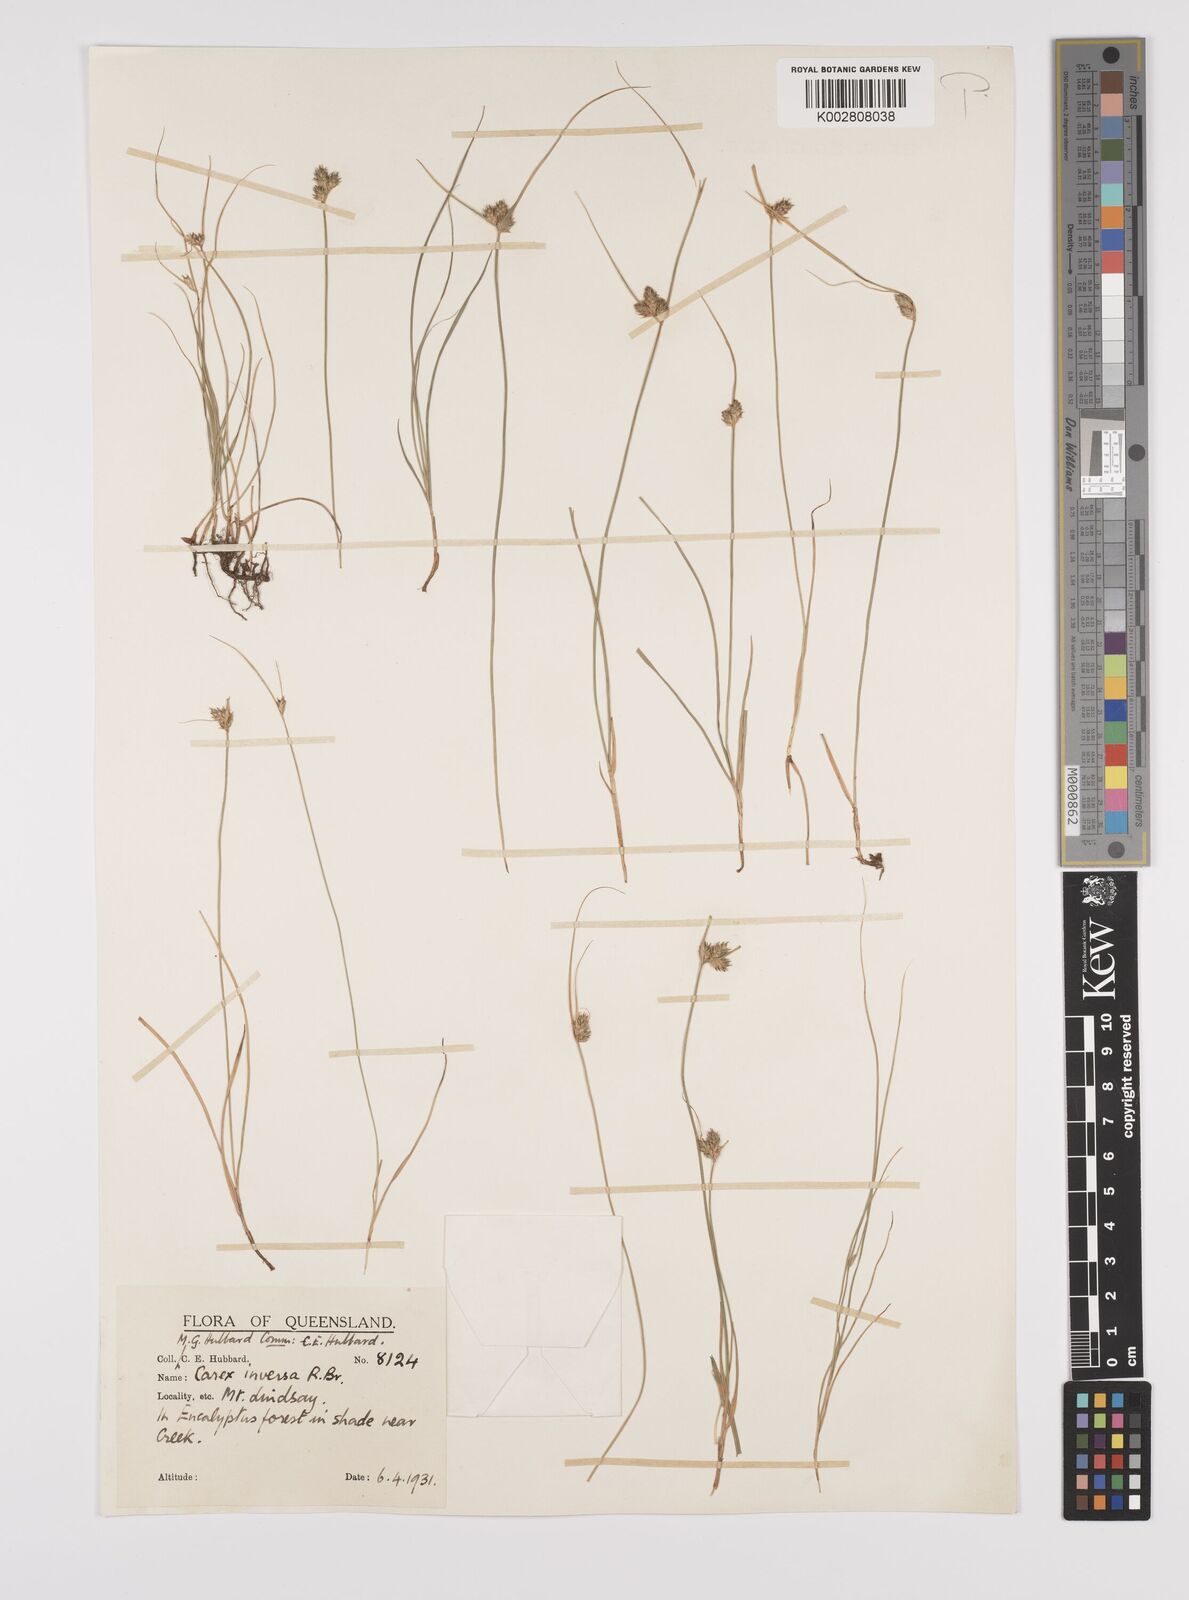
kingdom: Plantae
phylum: Tracheophyta
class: Liliopsida
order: Poales
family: Cyperaceae
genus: Carex
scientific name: Carex inversa
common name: Knob sedge
